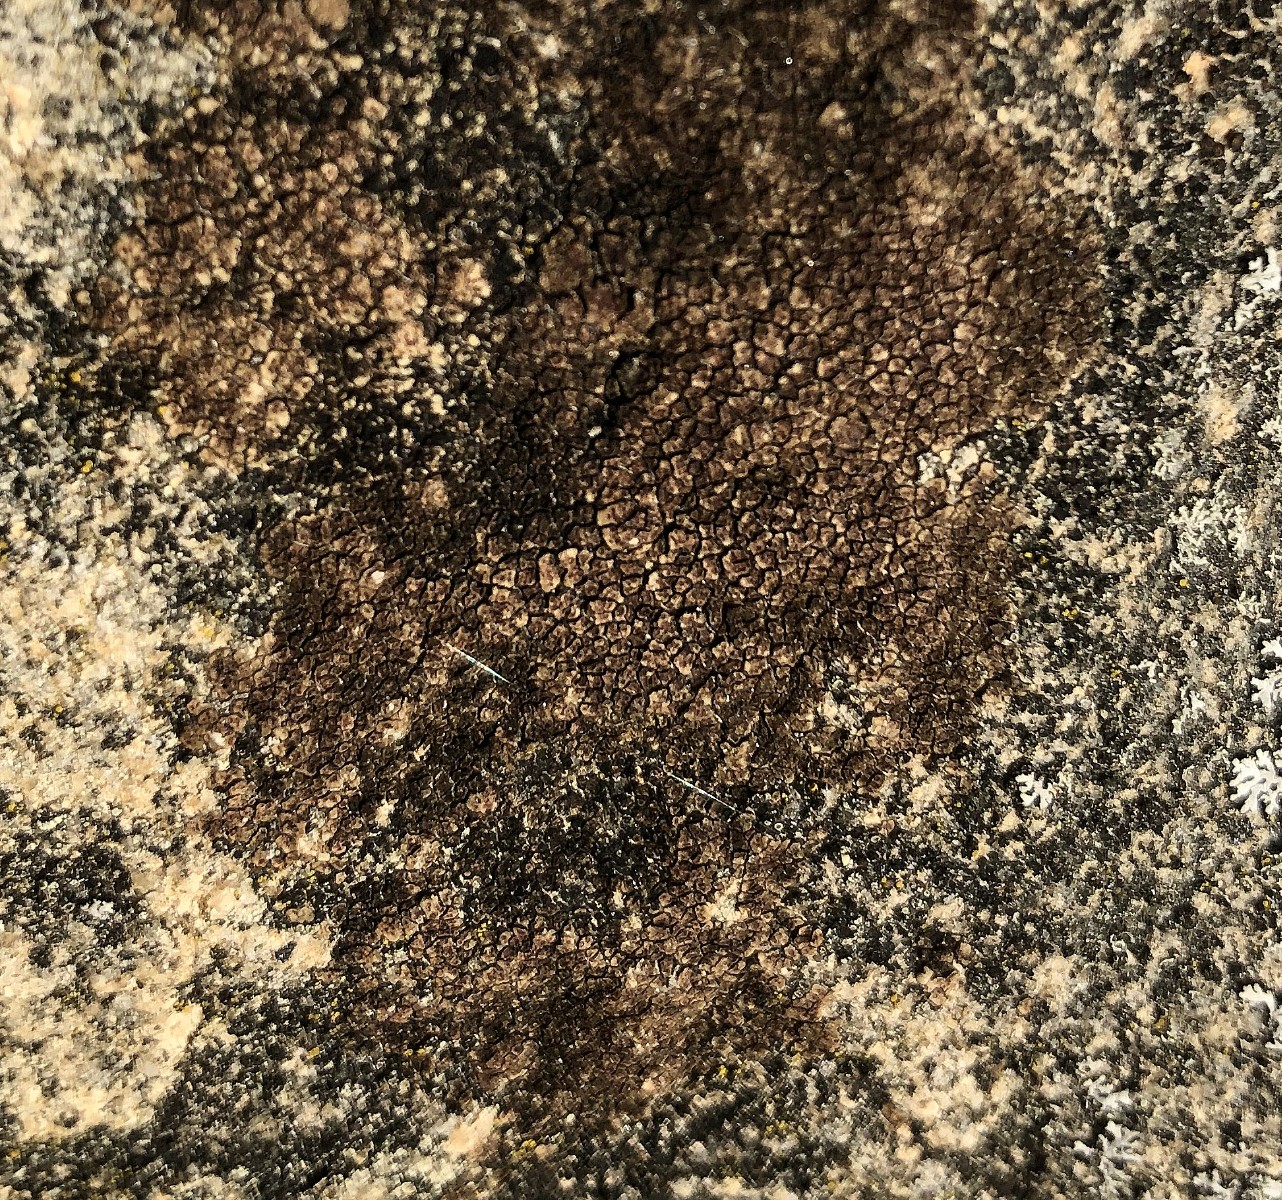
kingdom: Fungi
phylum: Ascomycota
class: Lecanoromycetes
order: Acarosporales
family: Acarosporaceae
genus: Acarospora
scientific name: Acarospora fuscata
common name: brun småsporelav
